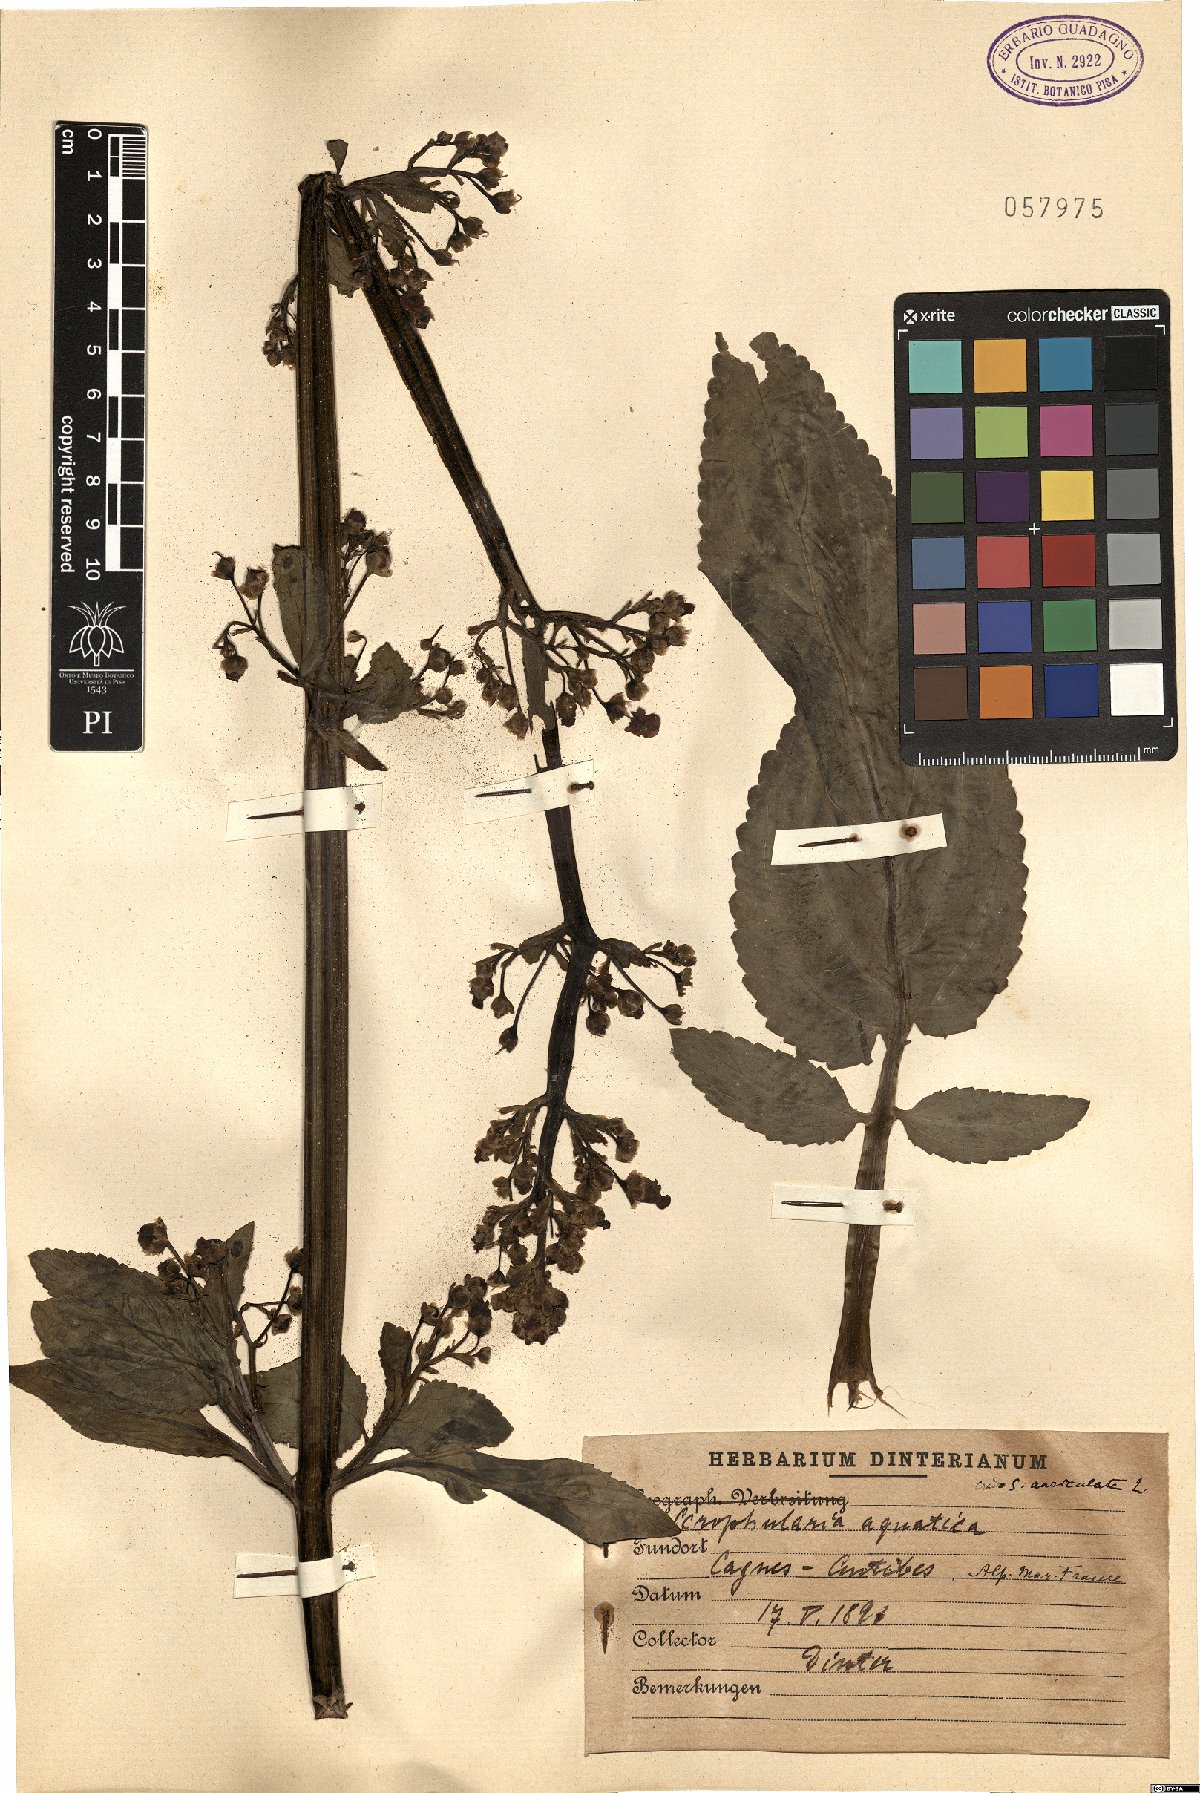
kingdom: Plantae
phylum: Tracheophyta
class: Magnoliopsida
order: Lamiales
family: Scrophulariaceae
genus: Scrophularia
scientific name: Scrophularia umbrosa
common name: Green figwort
